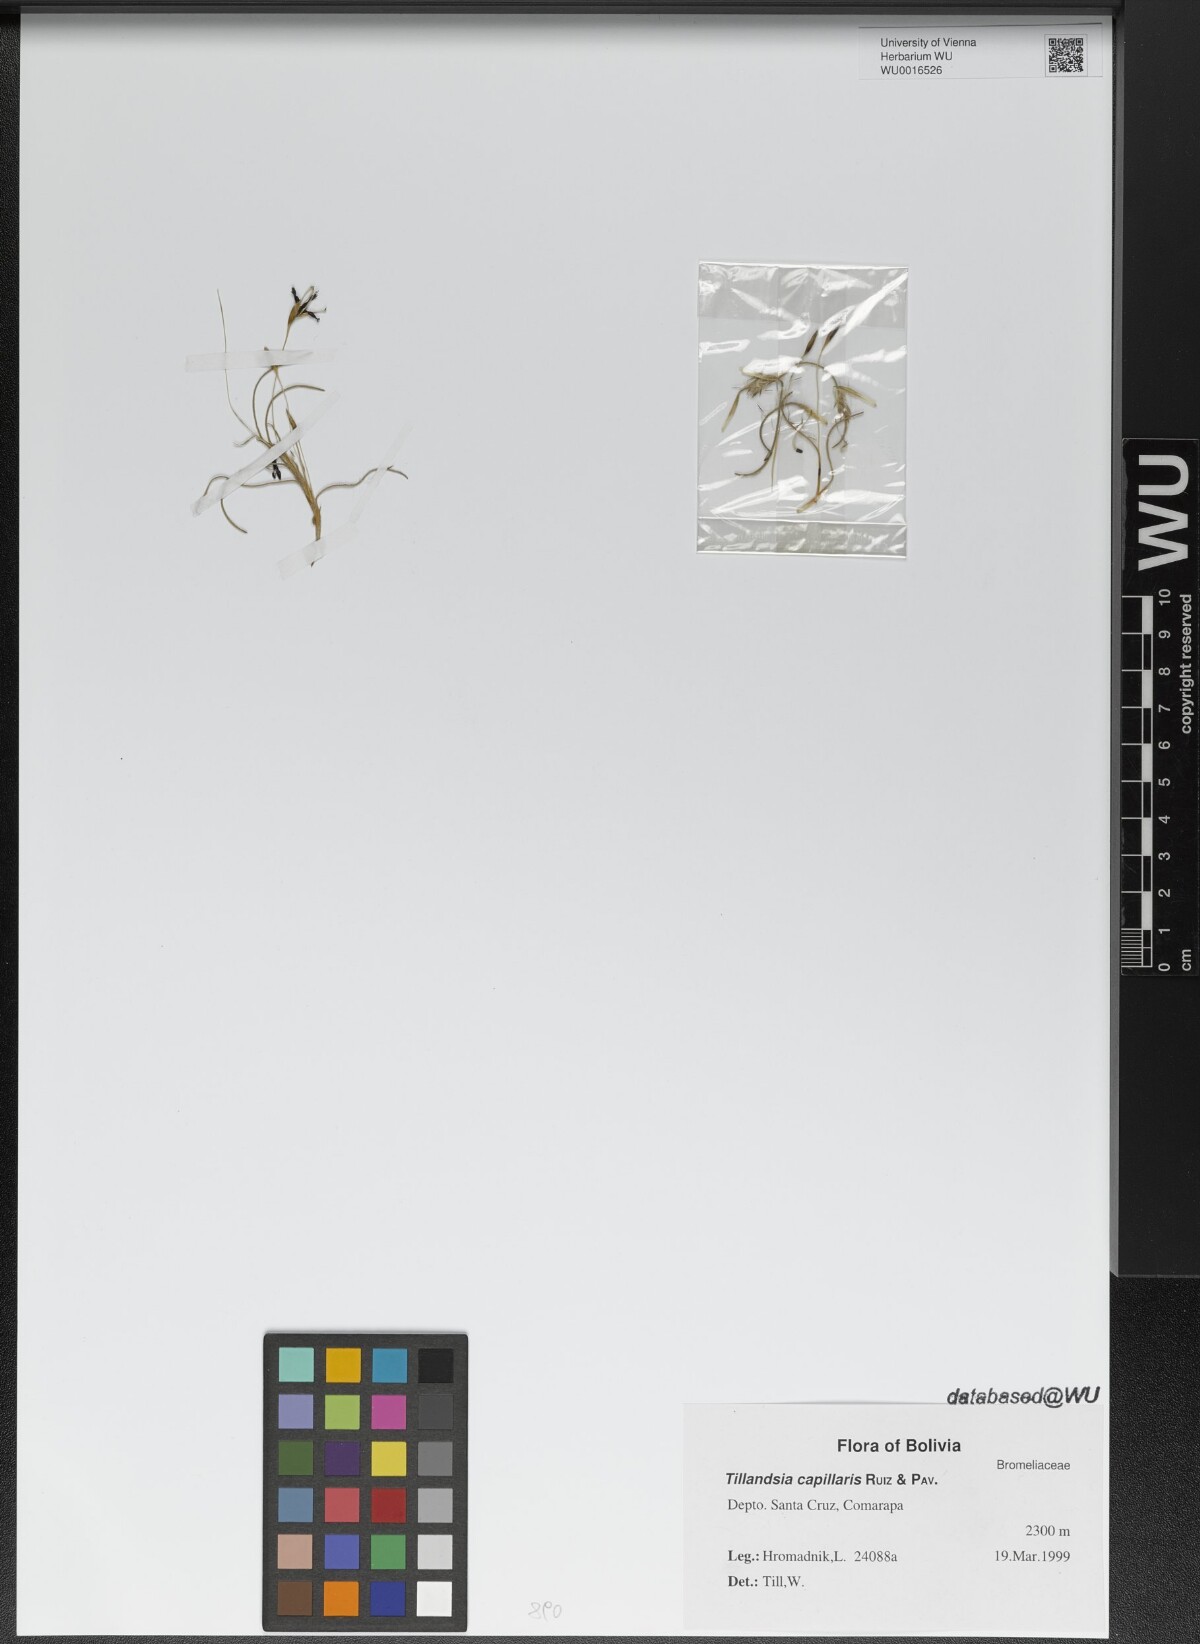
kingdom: Plantae
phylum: Tracheophyta
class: Liliopsida
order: Poales
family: Bromeliaceae
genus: Tillandsia
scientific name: Tillandsia capillaris
